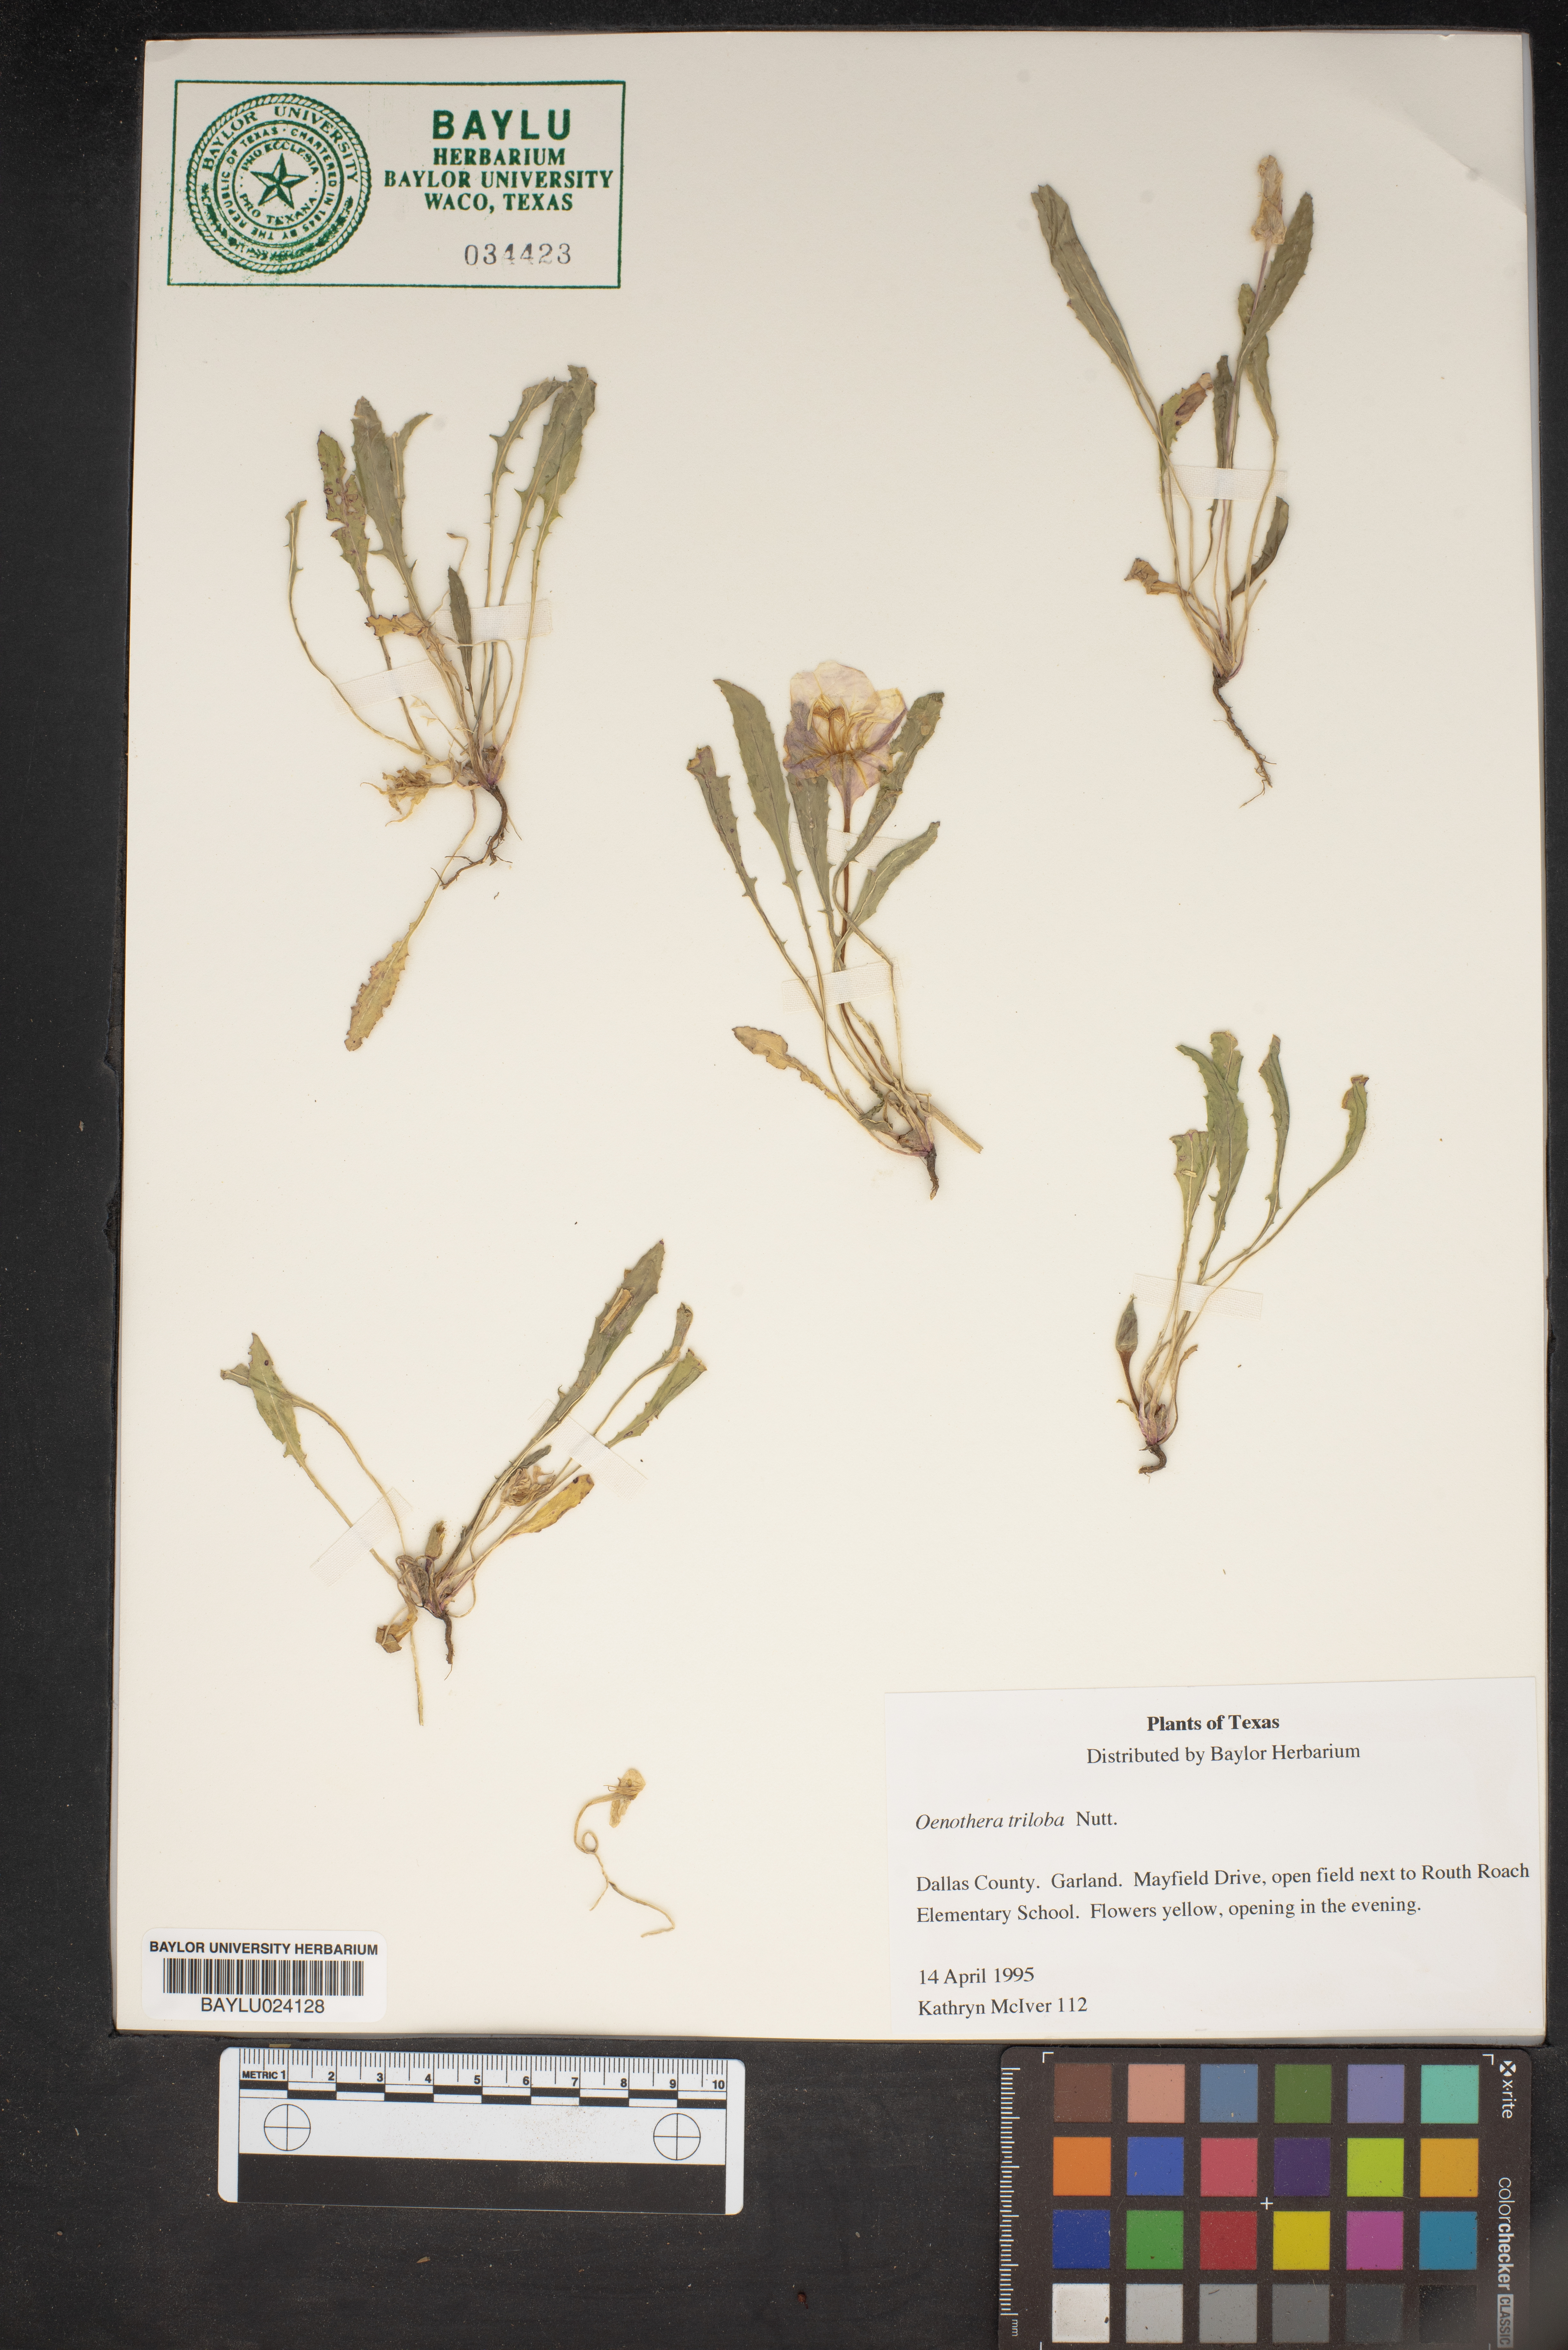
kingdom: Plantae
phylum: Tracheophyta
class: Magnoliopsida
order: Myrtales
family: Onagraceae
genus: Oenothera
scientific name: Oenothera triloba
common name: Sessile evening-primrose
